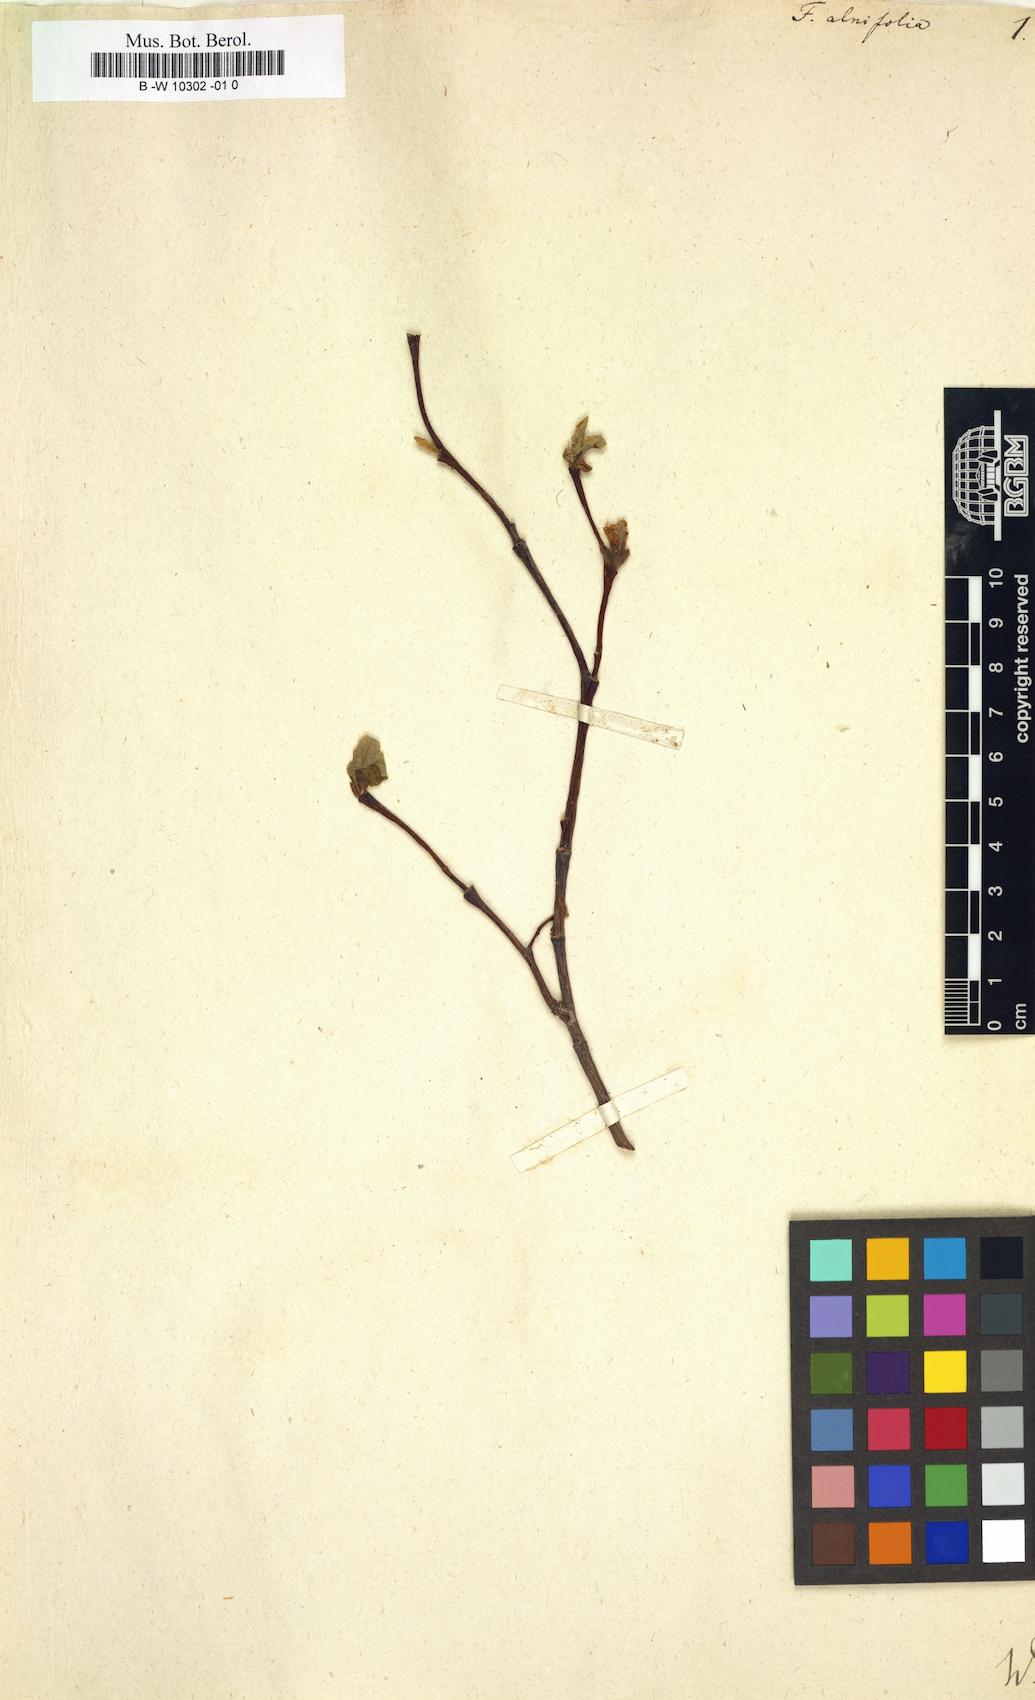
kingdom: Plantae
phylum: Tracheophyta
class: Magnoliopsida
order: Saxifragales
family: Hamamelidaceae
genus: Fothergilla
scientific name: Fothergilla gardenii
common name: Dwarf witch-alder
